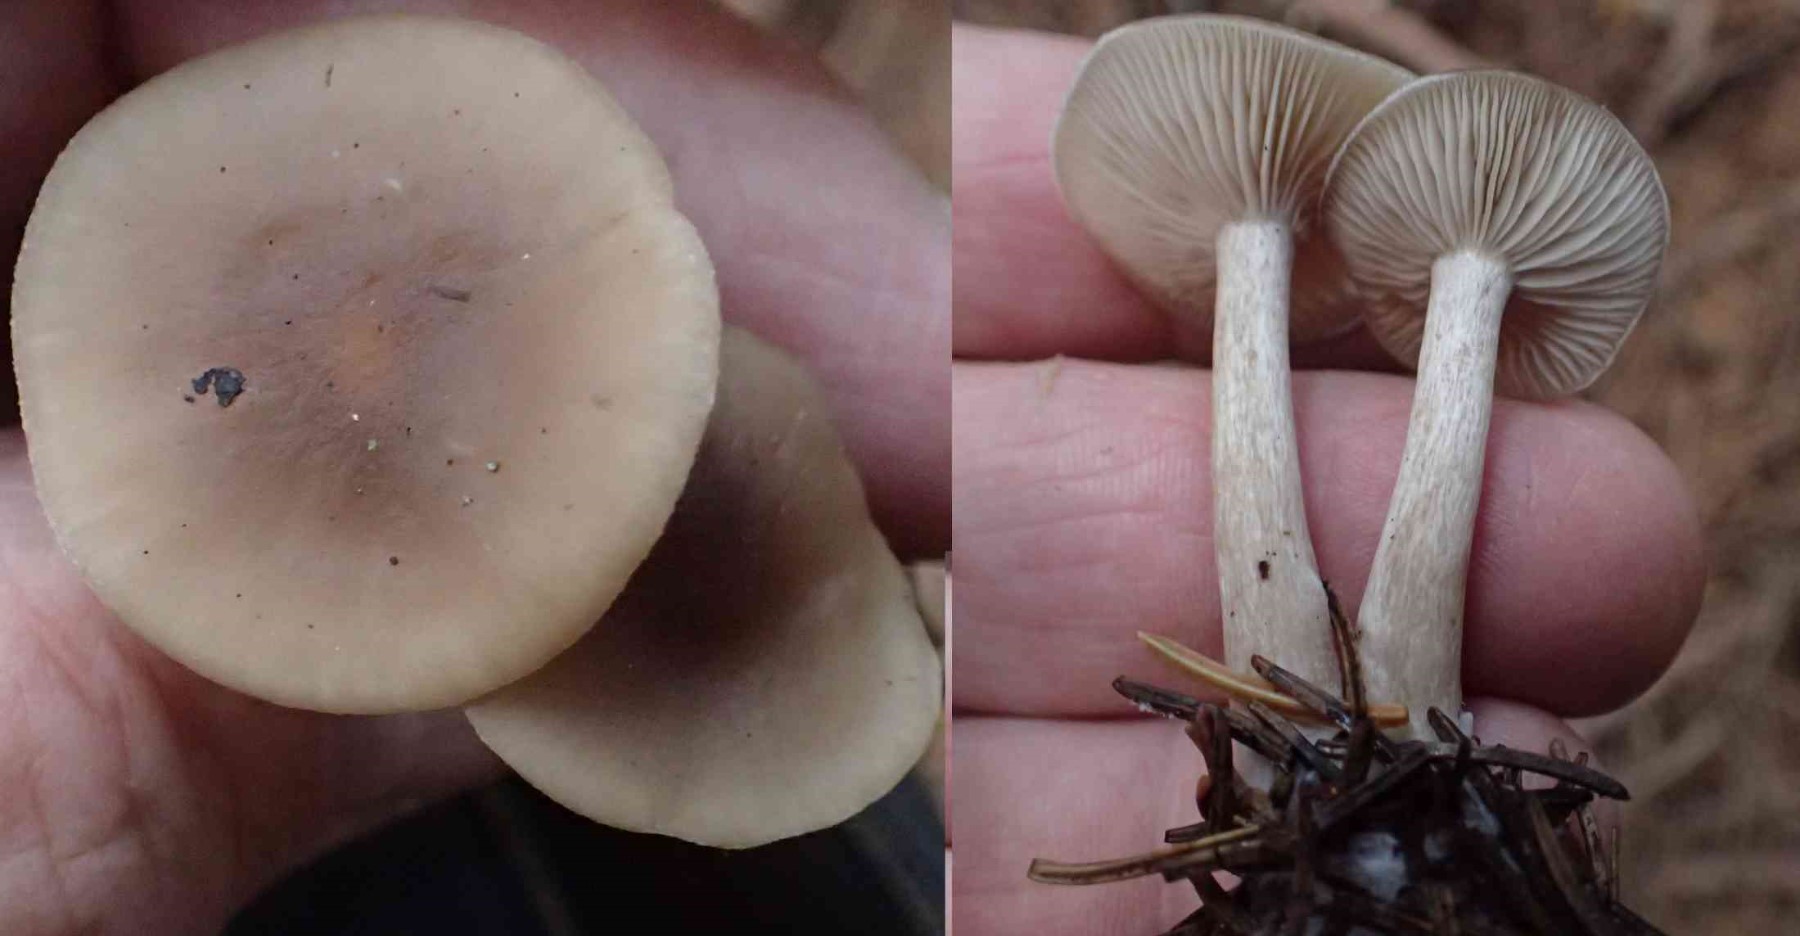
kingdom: Fungi
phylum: Basidiomycota
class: Agaricomycetes
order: Agaricales
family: Tricholomataceae
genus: Clitocybe
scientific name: Clitocybe
